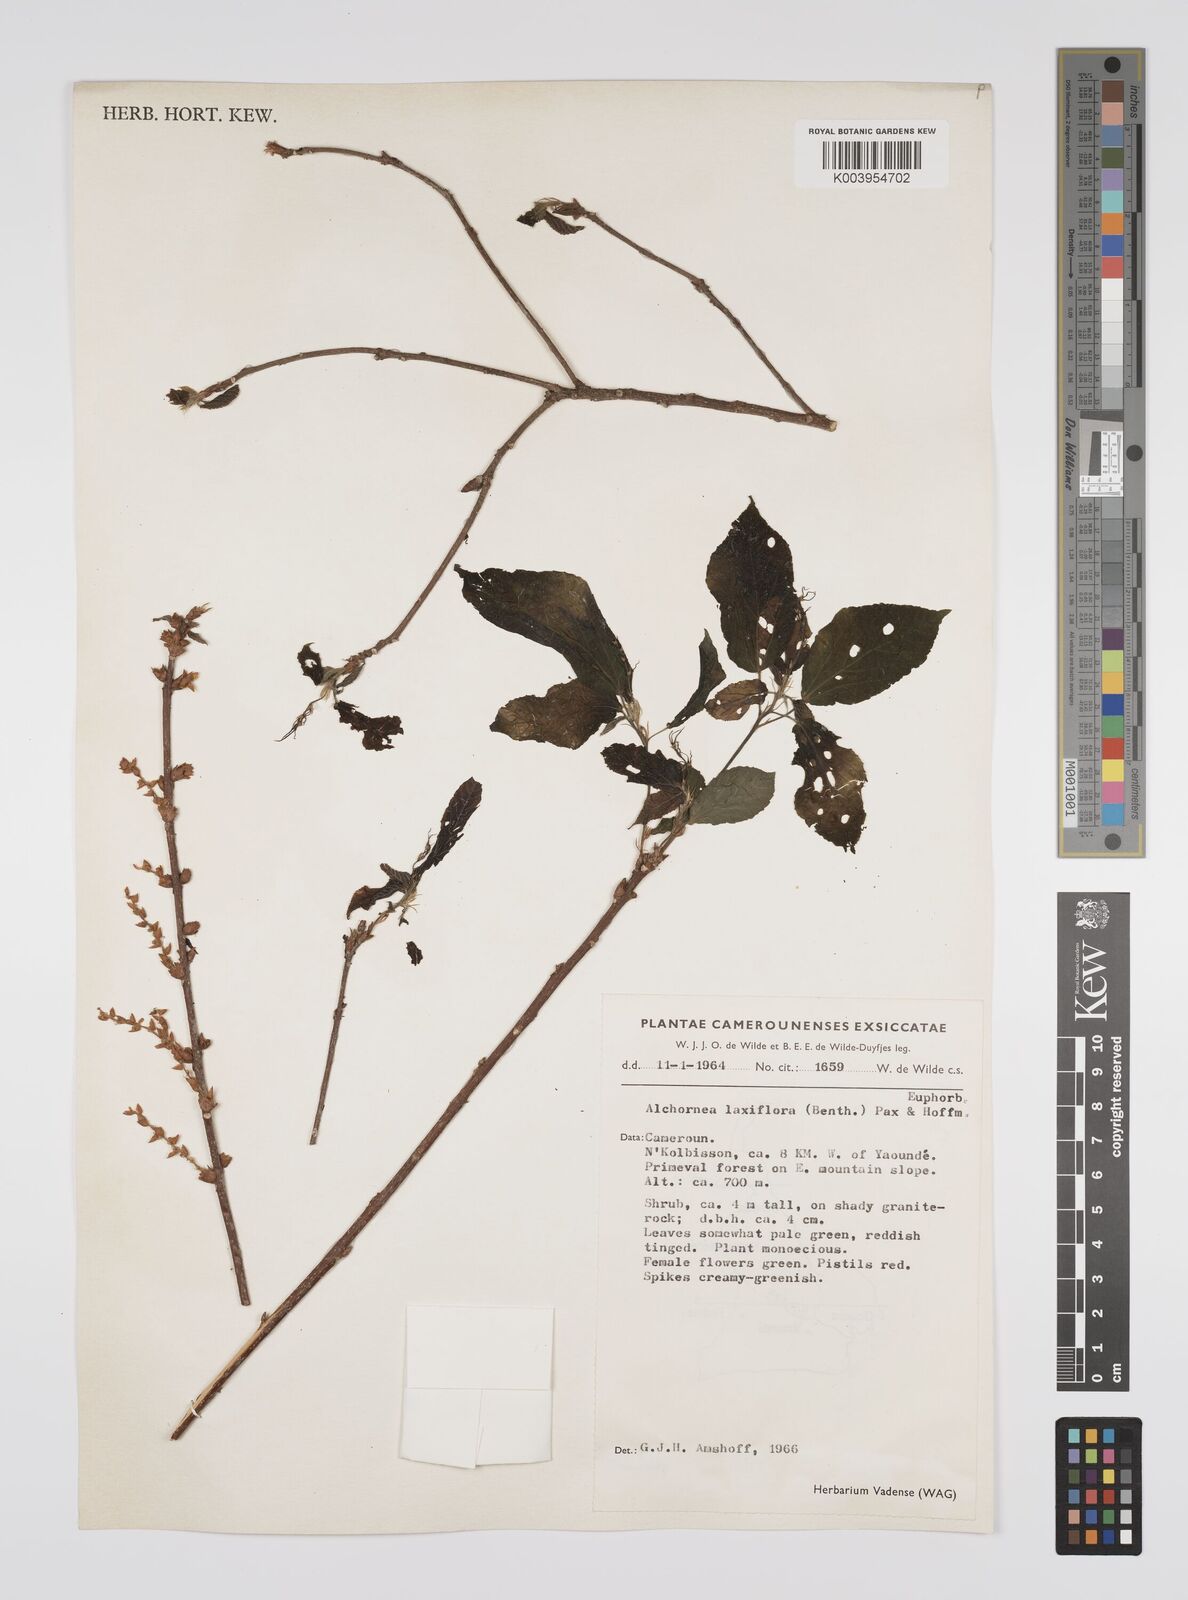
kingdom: Plantae
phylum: Tracheophyta
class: Magnoliopsida
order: Malpighiales
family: Euphorbiaceae
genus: Alchornea
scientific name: Alchornea laxiflora
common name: Lowveld bead-string
